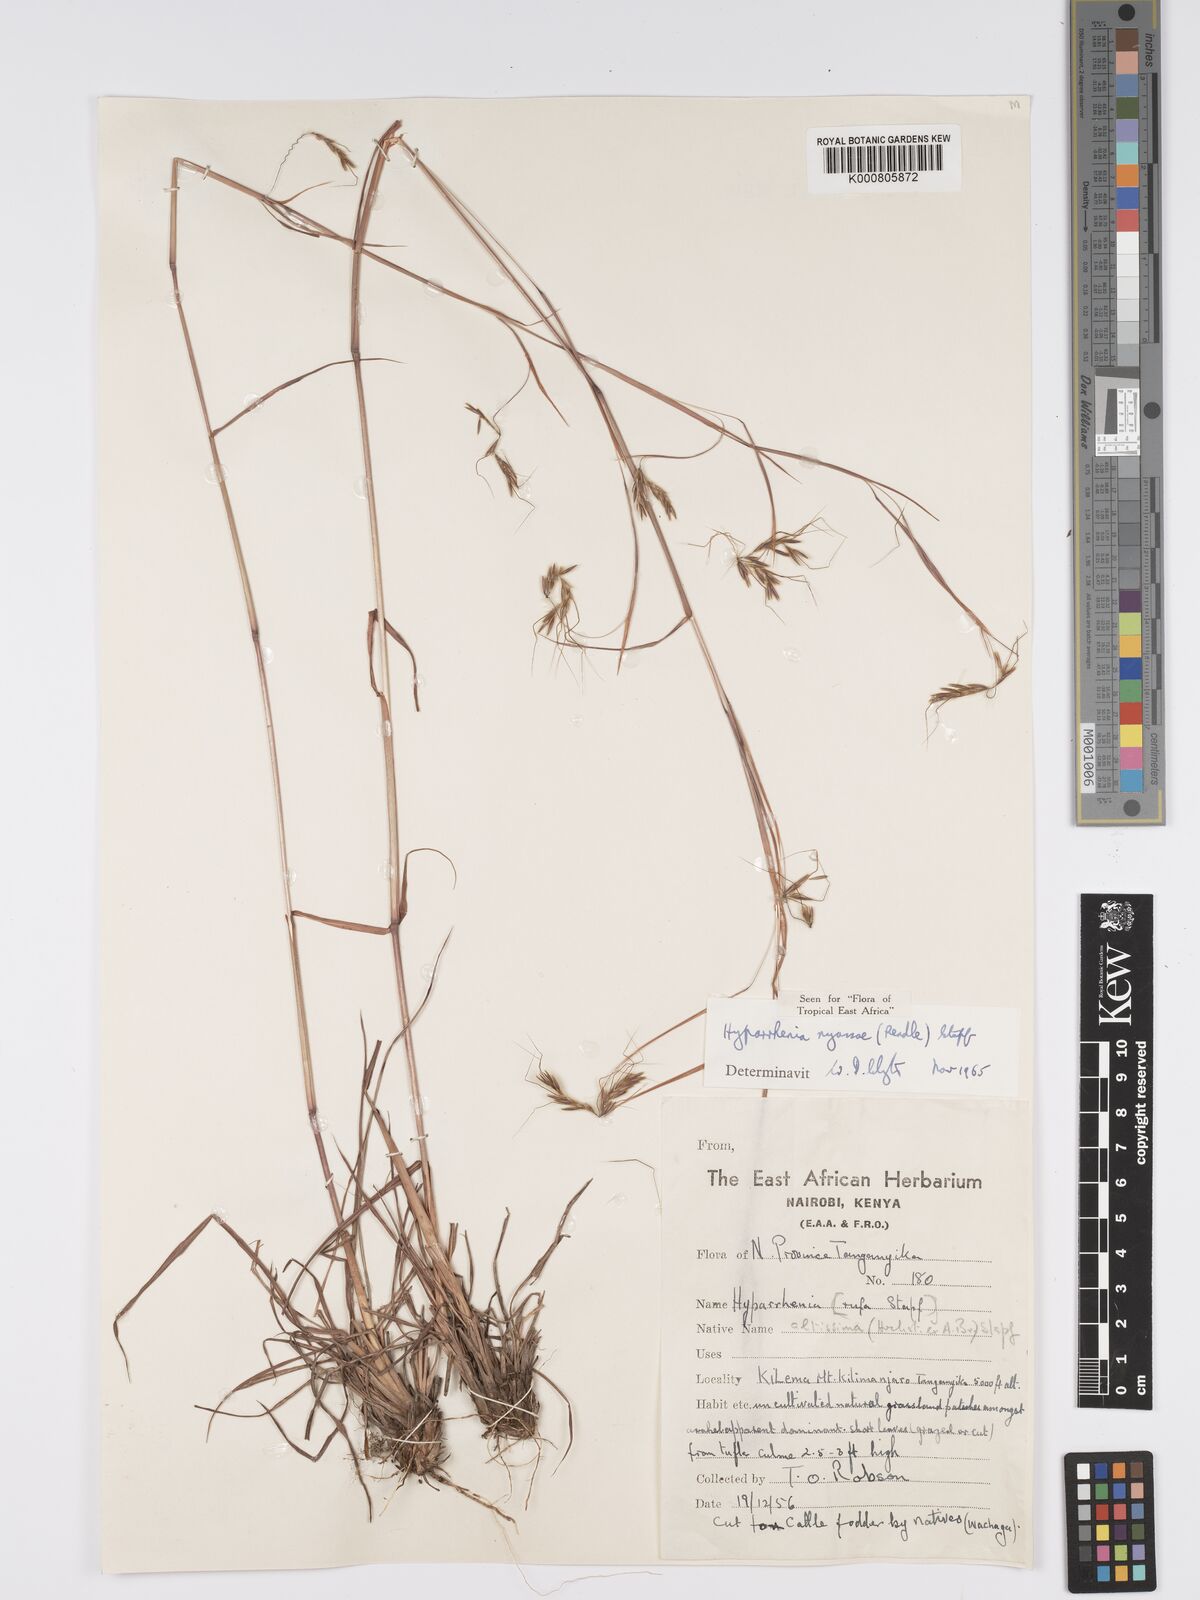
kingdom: Plantae
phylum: Tracheophyta
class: Liliopsida
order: Poales
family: Poaceae
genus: Hyparrhenia
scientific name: Hyparrhenia nyassae
